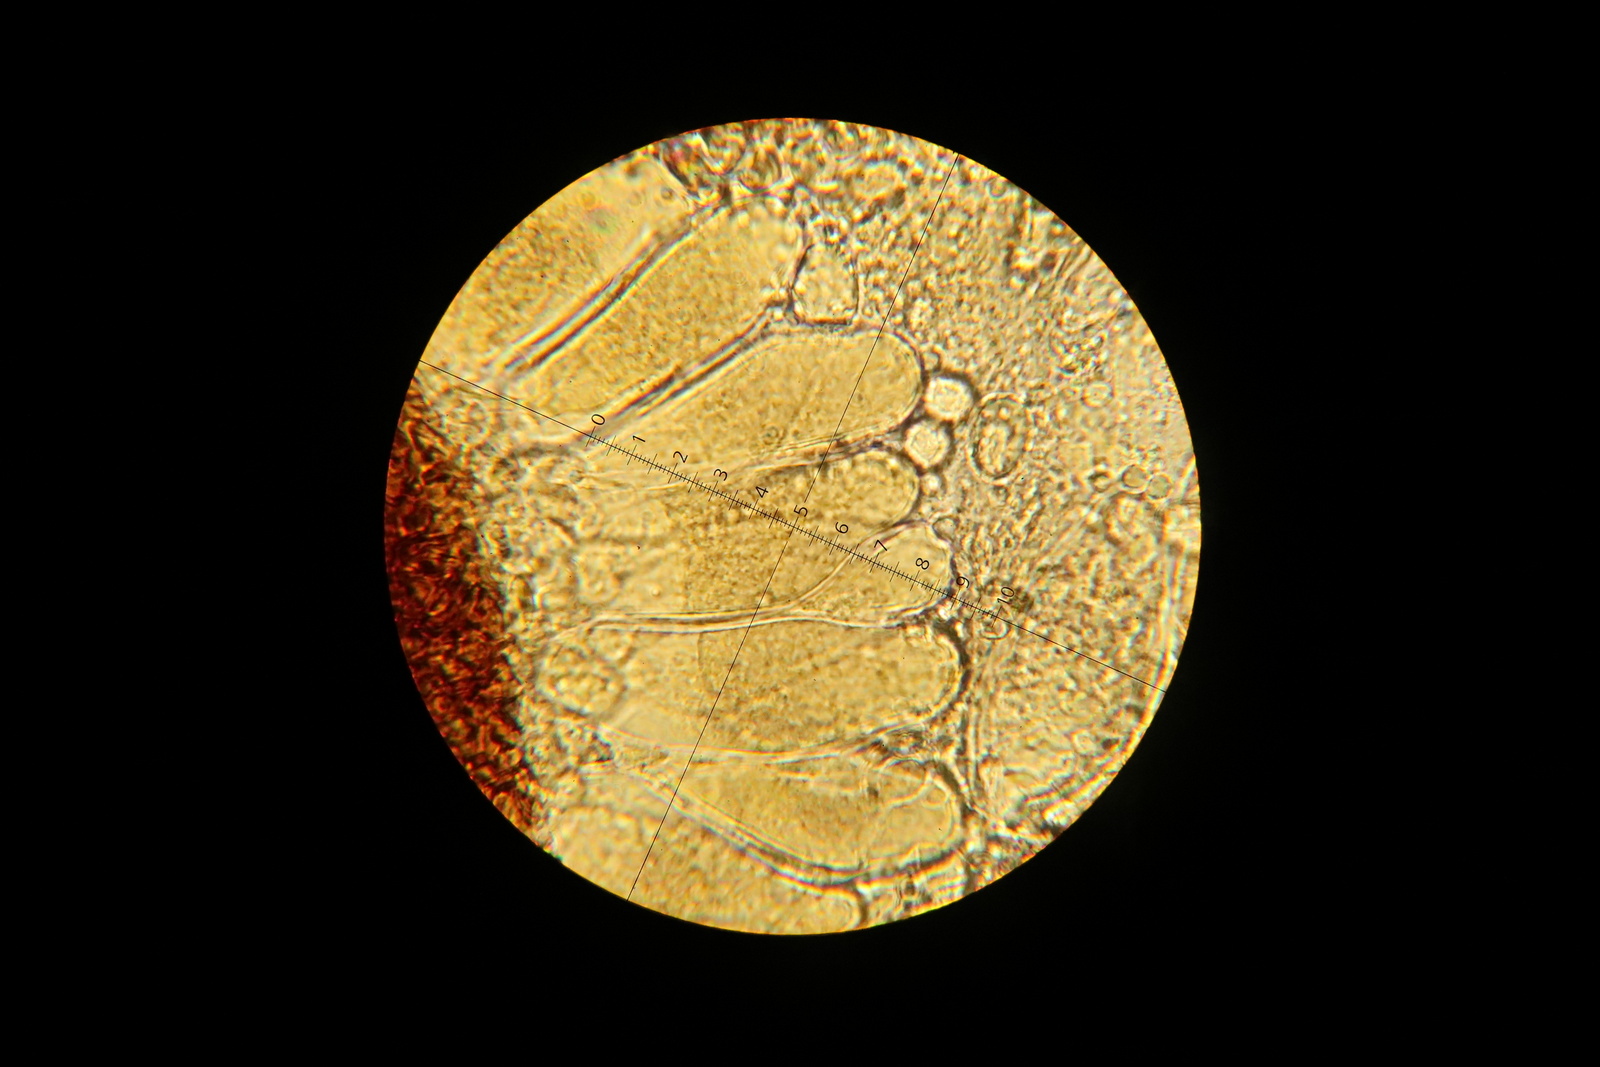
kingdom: Fungi
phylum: Ascomycota
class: Leotiomycetes
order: Helotiales
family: Erysiphaceae
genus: Phyllactinia
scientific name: Phyllactinia guttata
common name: hassel-meldug
